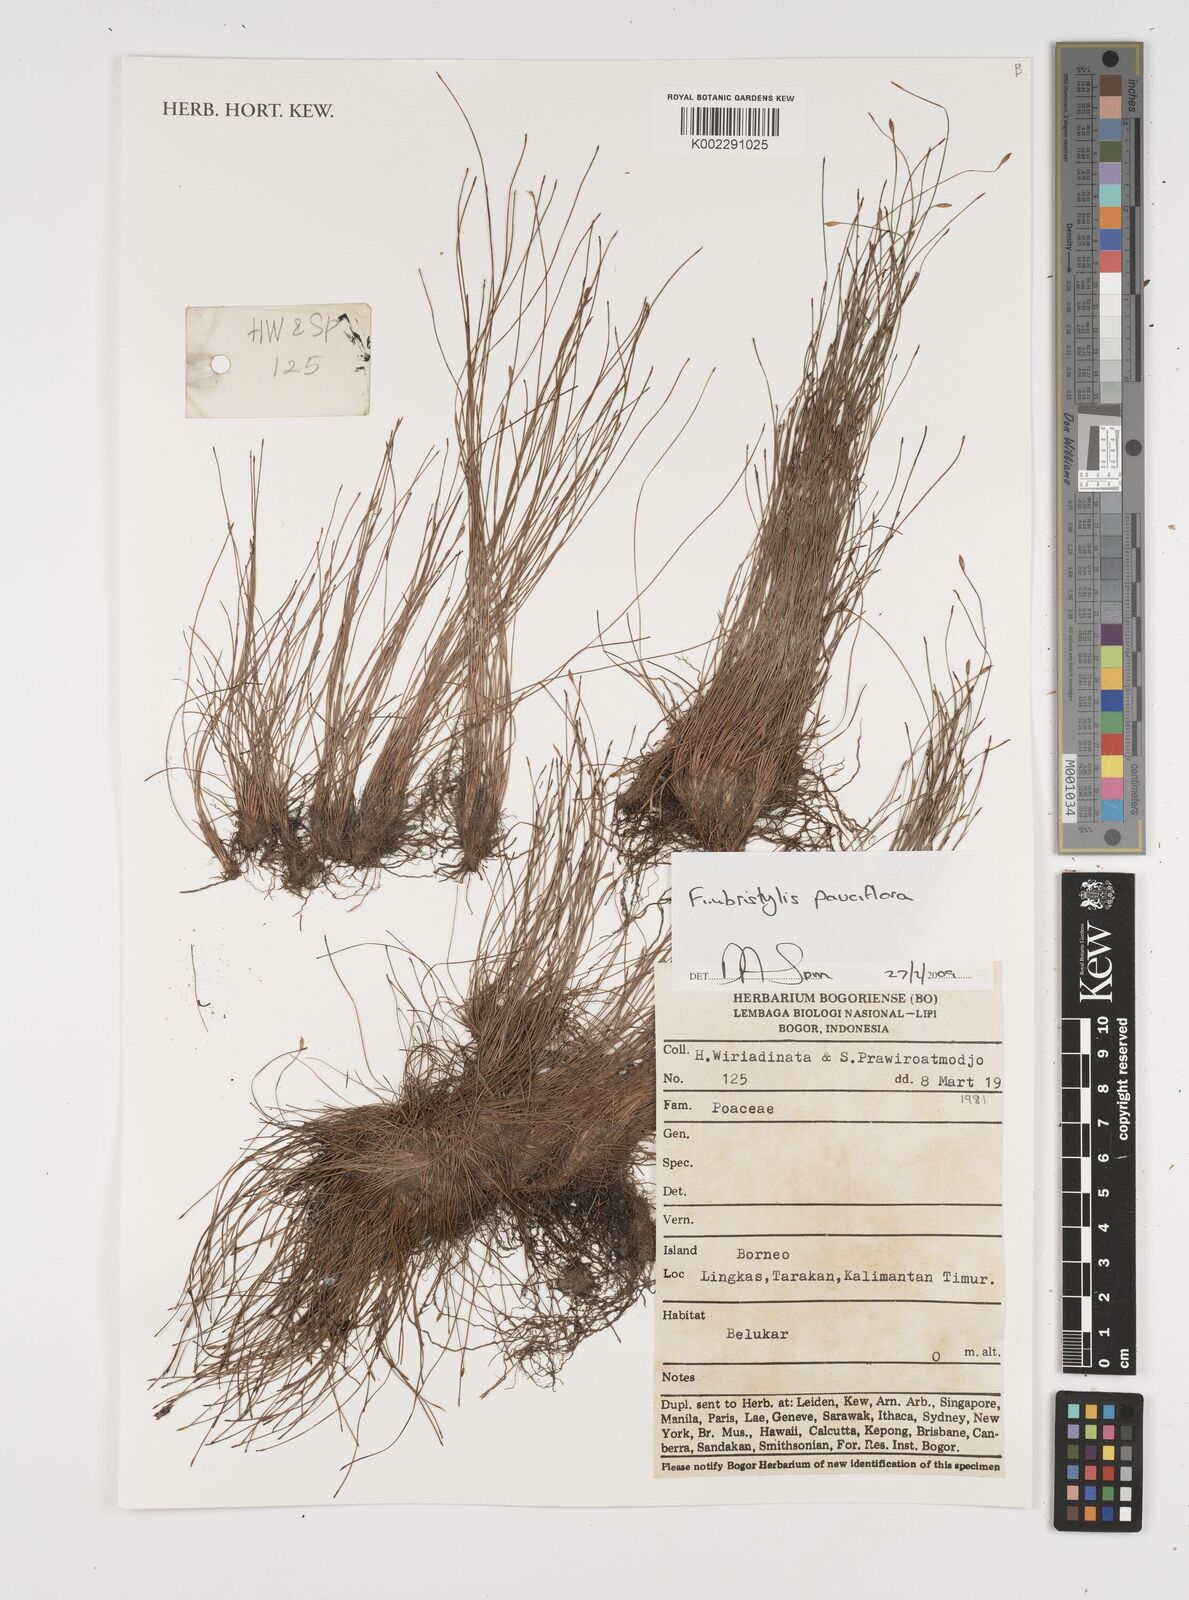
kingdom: Plantae
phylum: Tracheophyta
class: Liliopsida
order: Poales
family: Cyperaceae
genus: Fimbristylis
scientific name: Fimbristylis pauciflora
